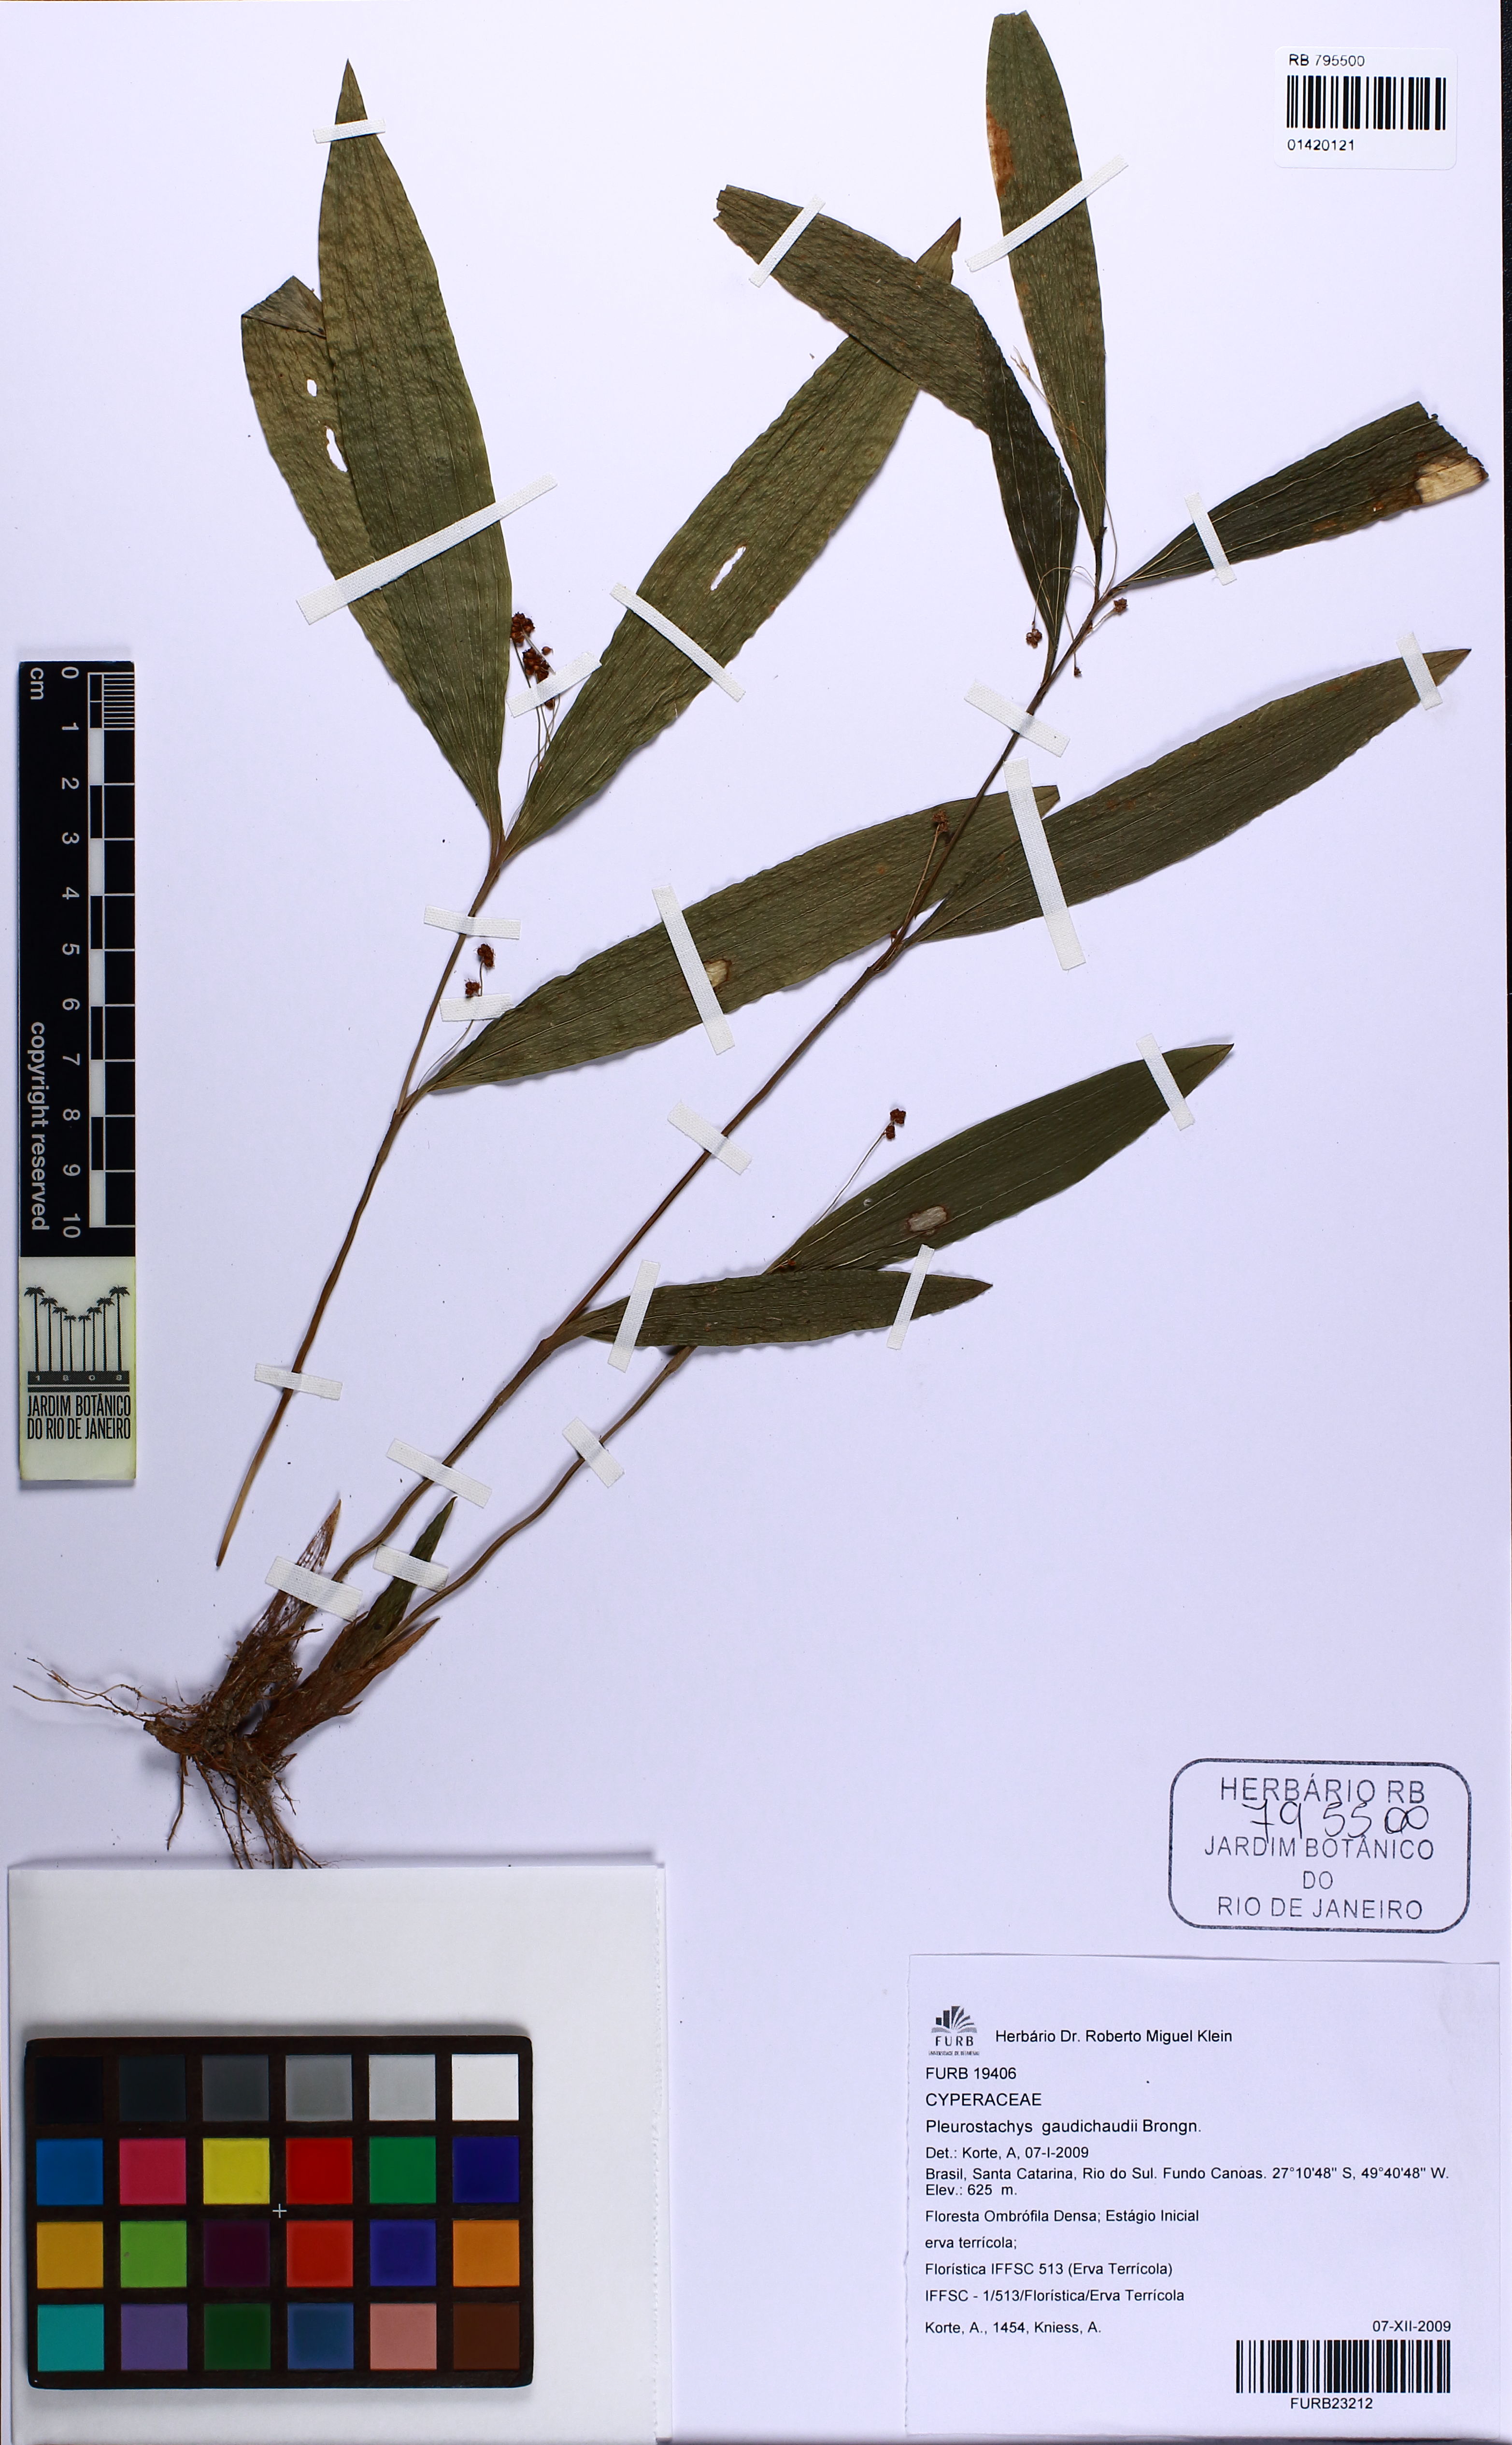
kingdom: Plantae
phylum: Tracheophyta
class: Liliopsida
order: Poales
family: Cyperaceae
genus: Rhynchospora
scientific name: Rhynchospora gaudichaudii
